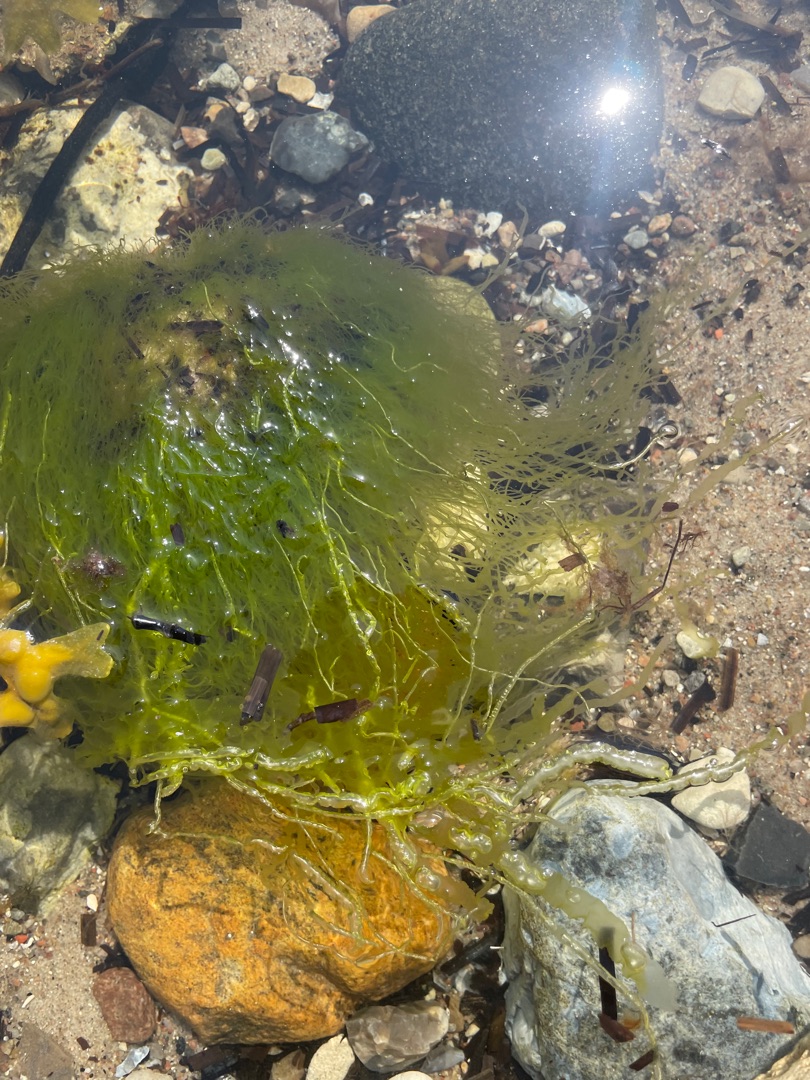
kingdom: Plantae
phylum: Chlorophyta
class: Ulvophyceae
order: Ulvales
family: Ulvaceae
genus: Ulva
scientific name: Ulva
